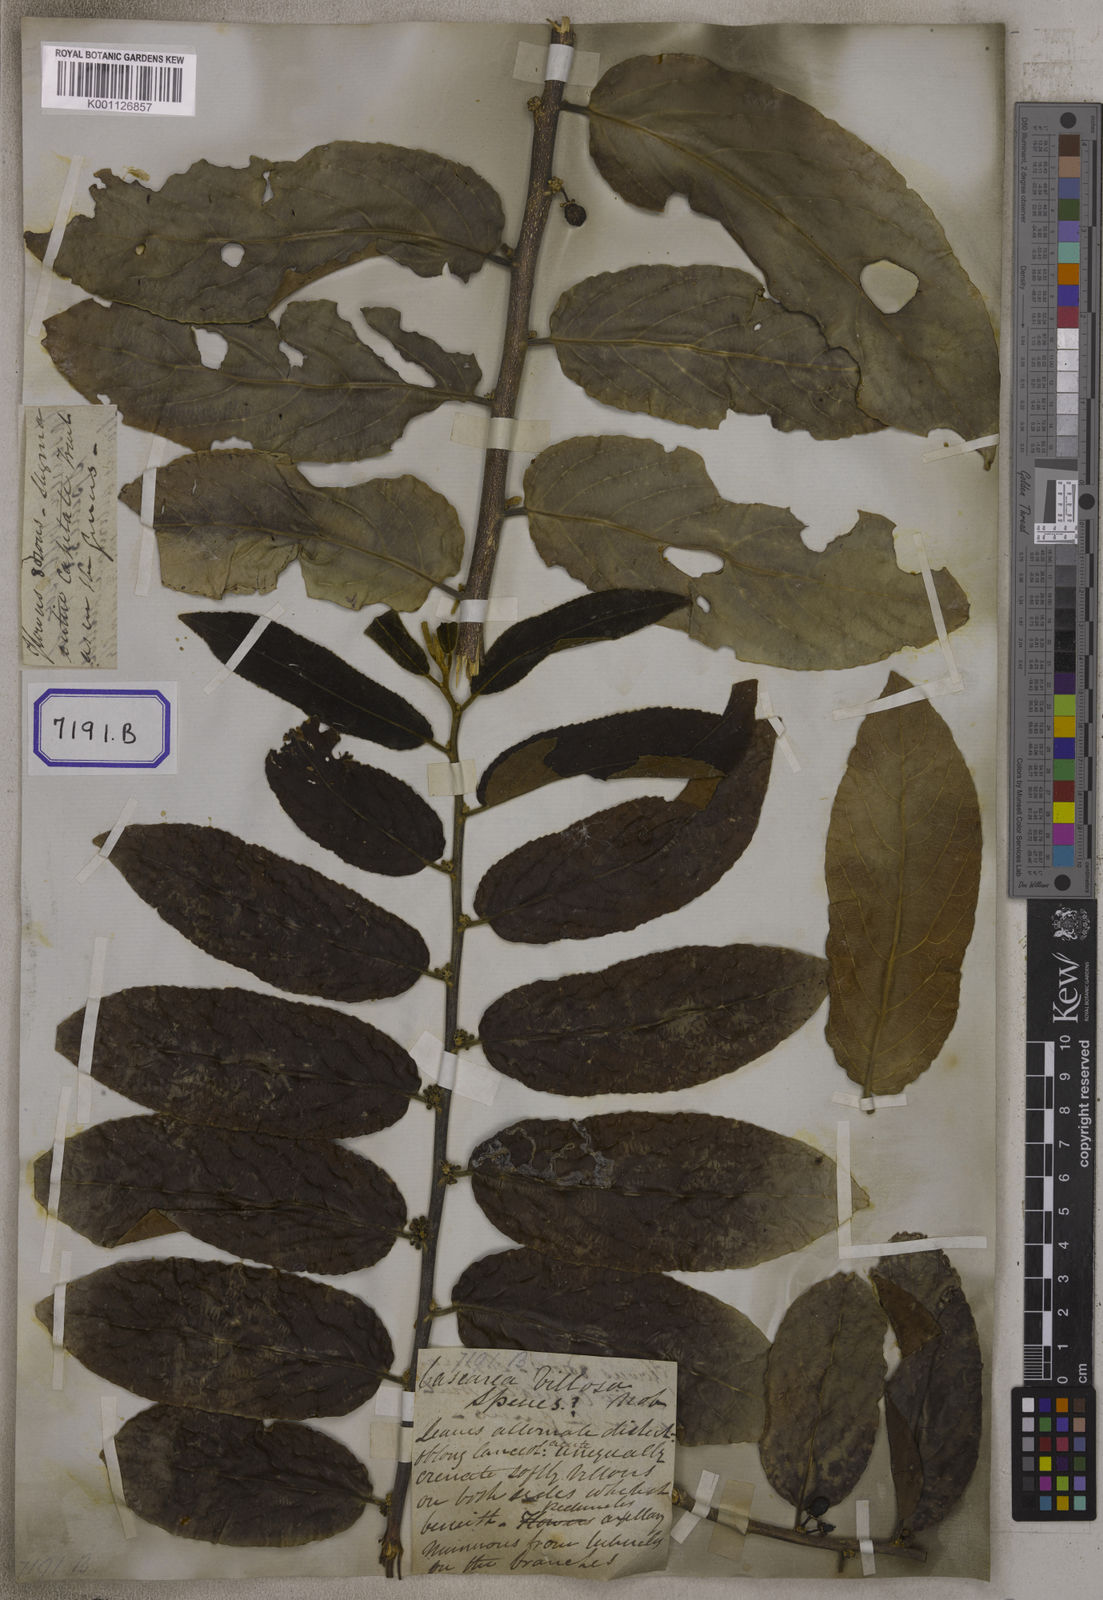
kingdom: Plantae
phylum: Tracheophyta
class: Magnoliopsida
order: Malpighiales
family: Salicaceae
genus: Casearia
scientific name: Casearia tomentosa
